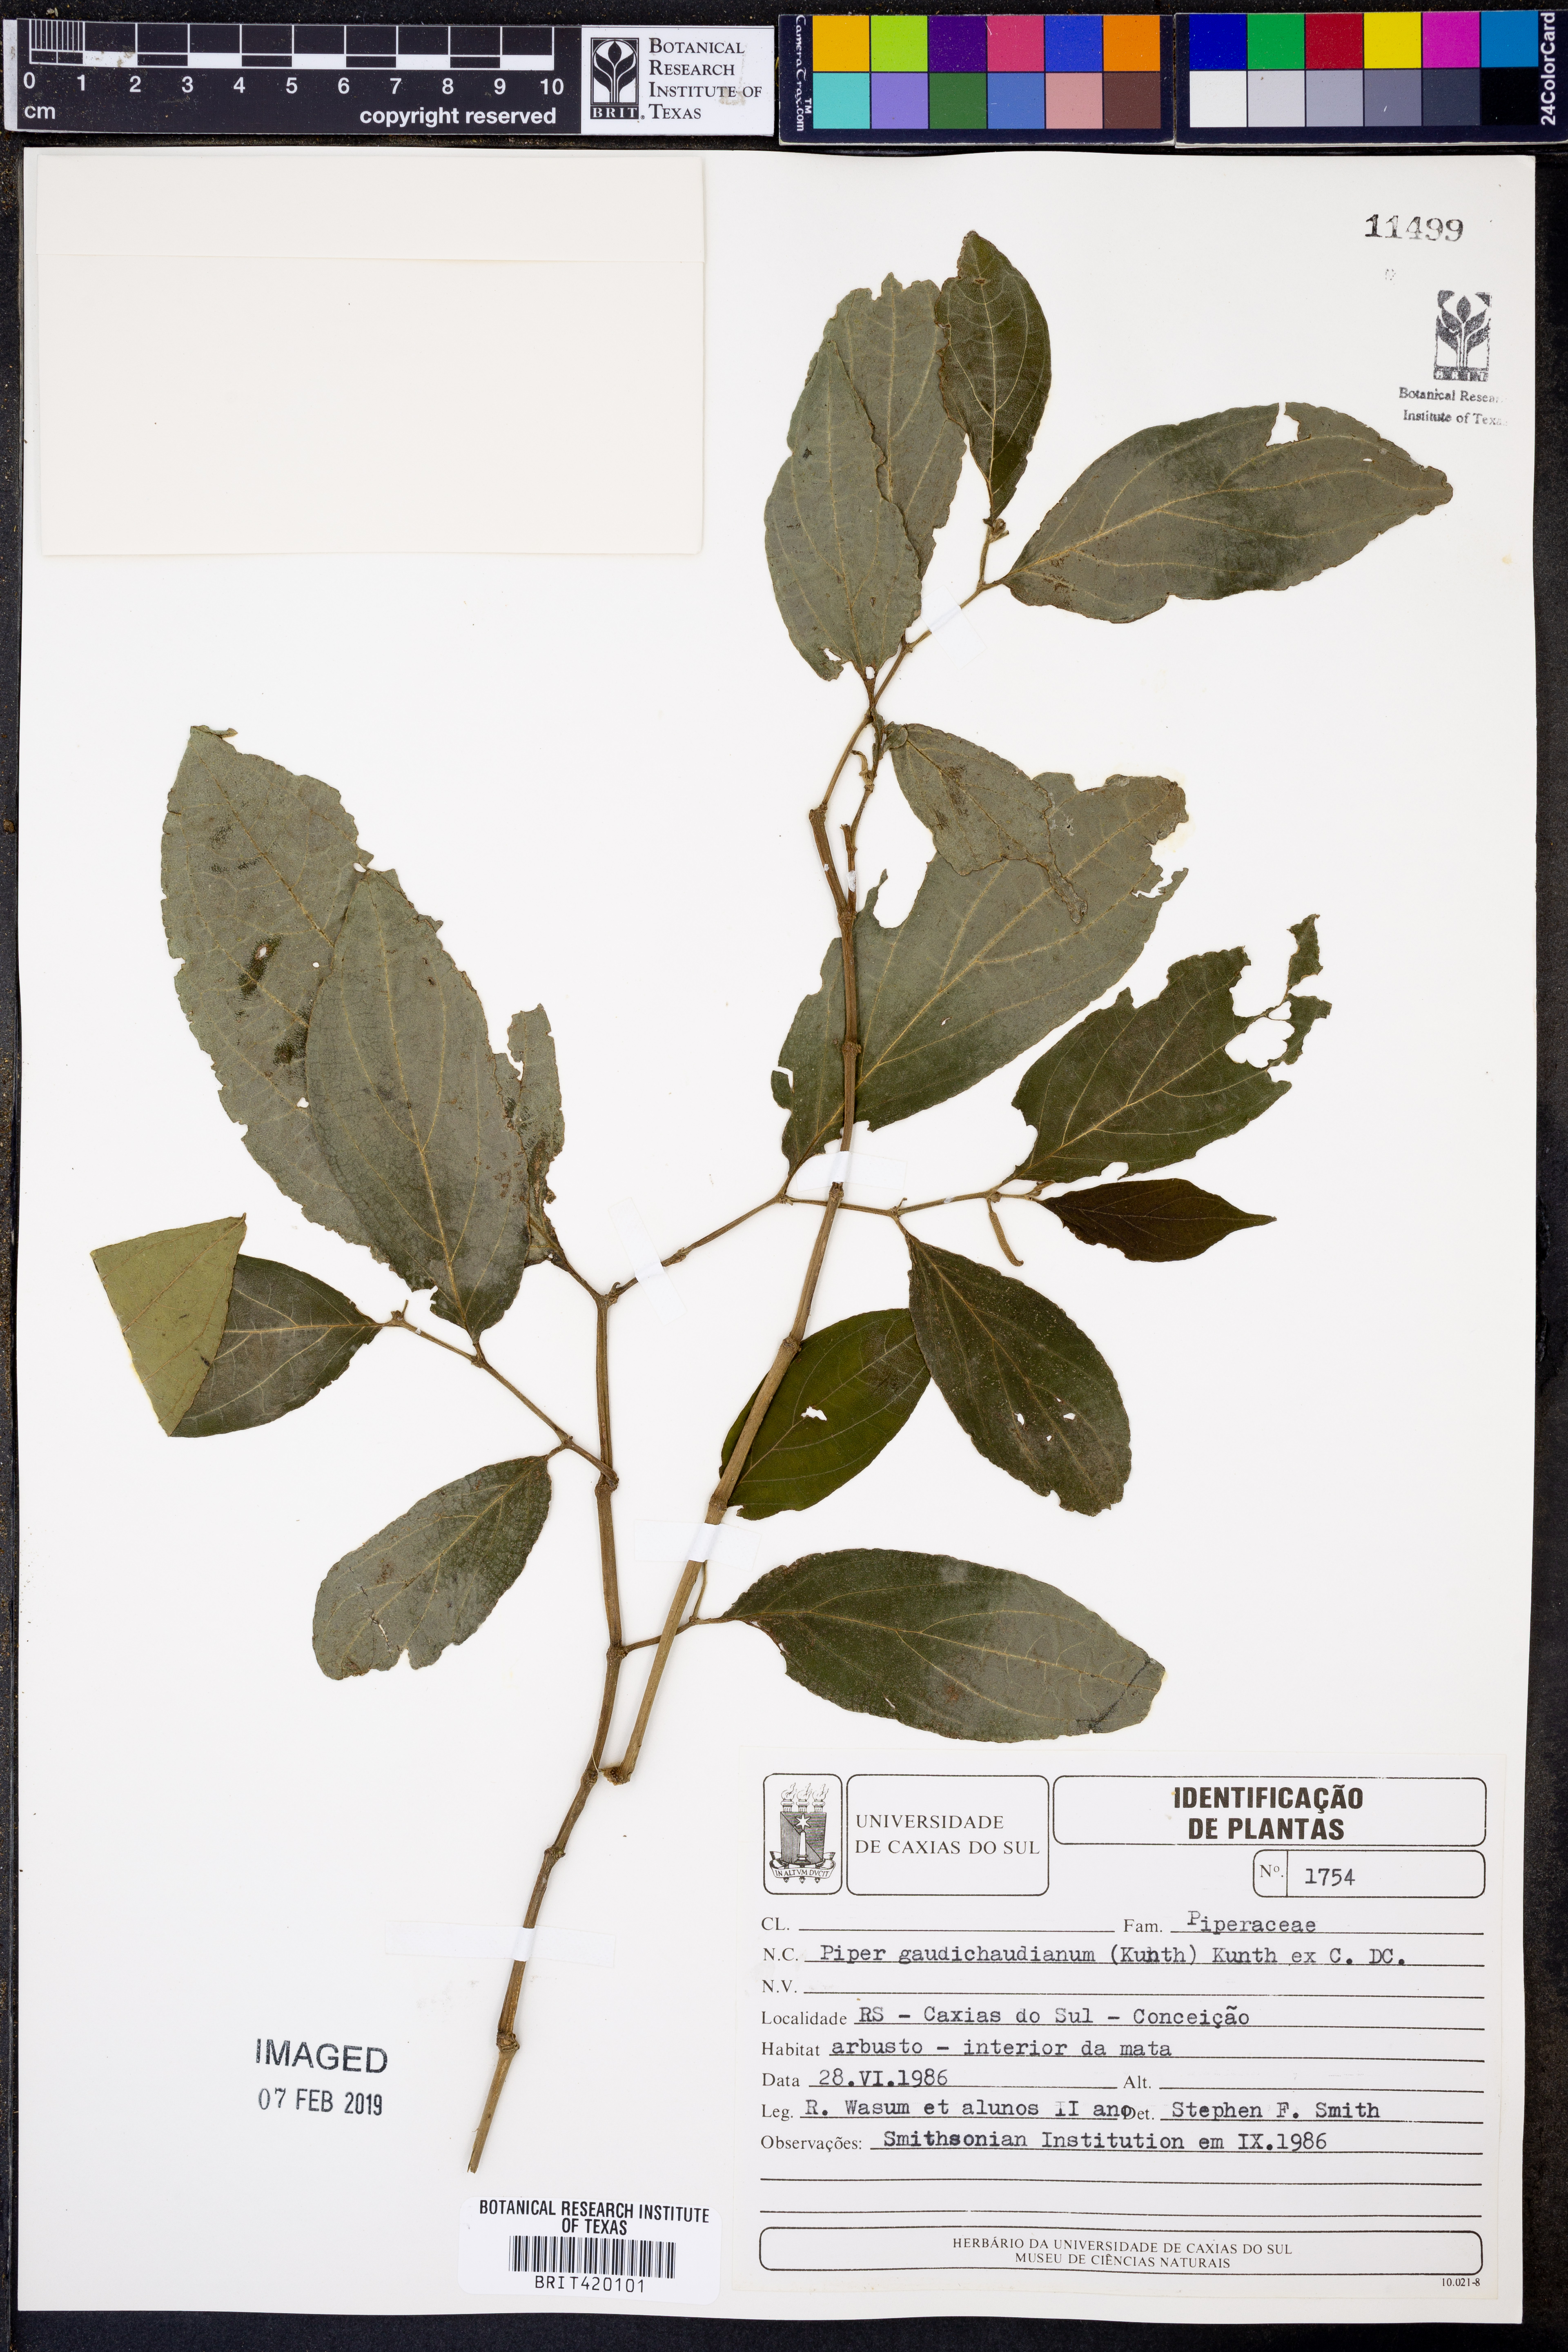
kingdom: Plantae
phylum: Tracheophyta
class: Magnoliopsida
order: Piperales
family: Piperaceae
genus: Piper
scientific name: Piper gaudichaudianum
